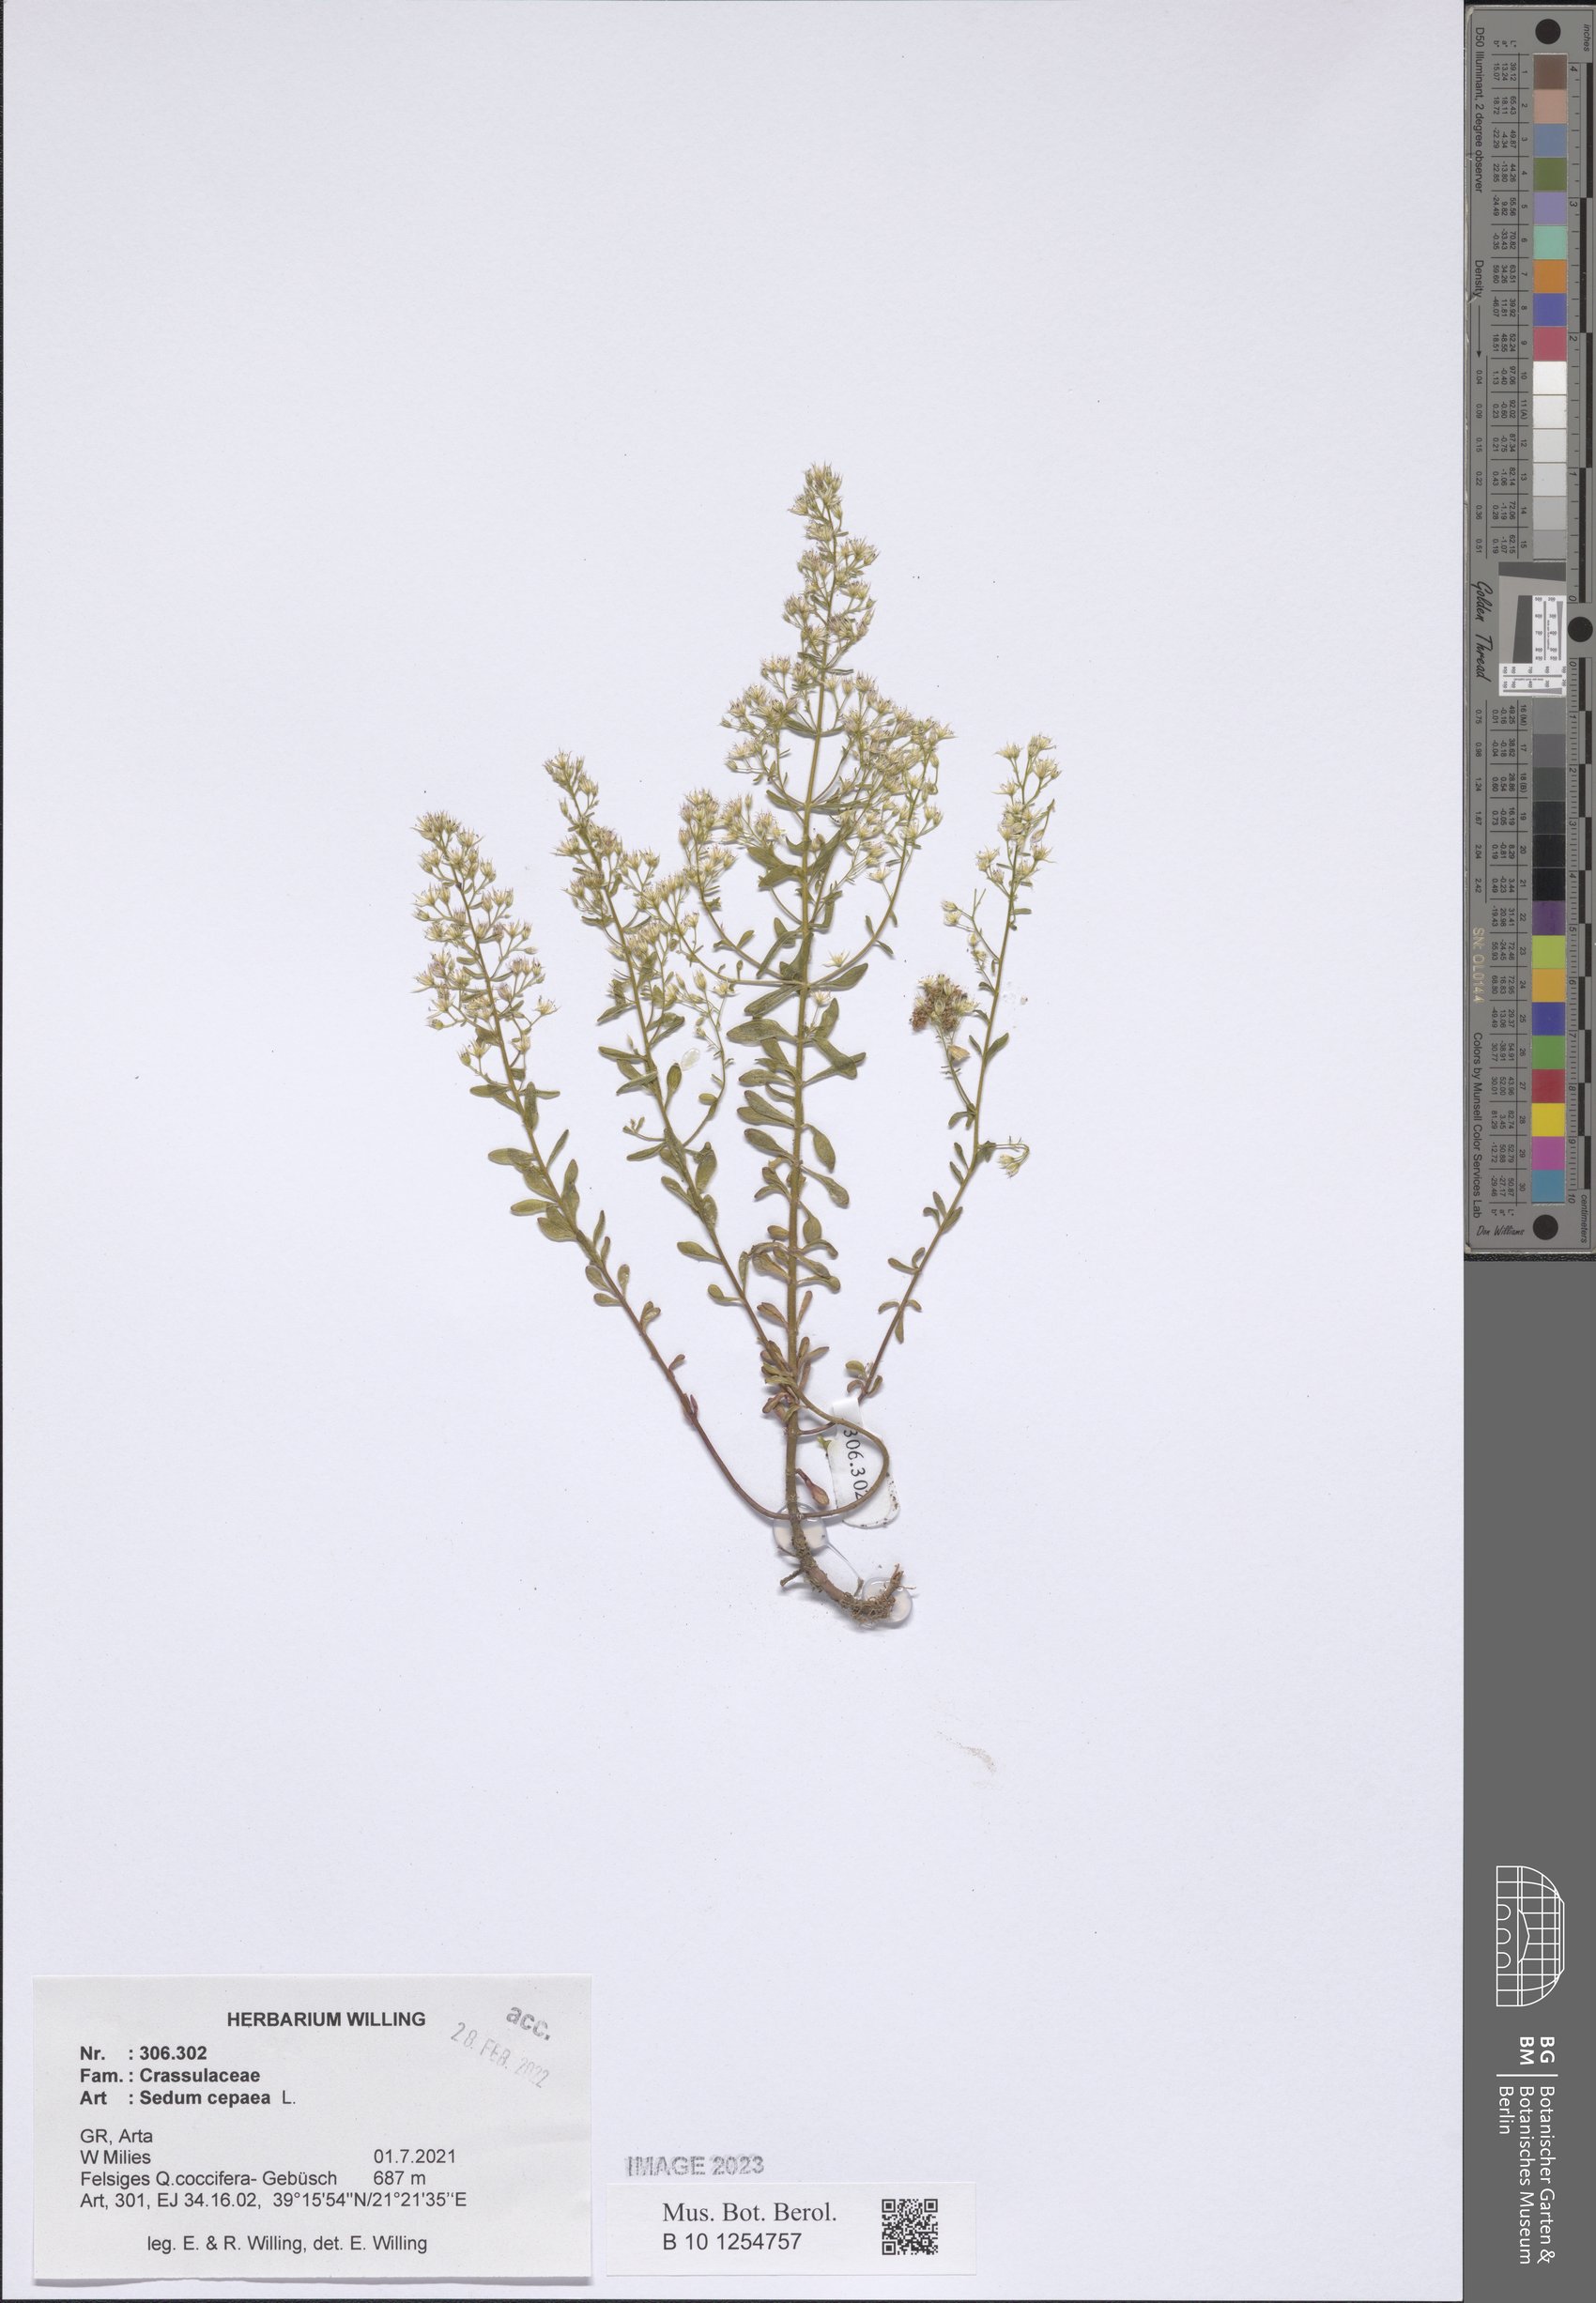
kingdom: Plantae
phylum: Tracheophyta
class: Magnoliopsida
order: Saxifragales
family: Crassulaceae
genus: Sedum
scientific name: Sedum cepaea
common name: Pink stonecrop
